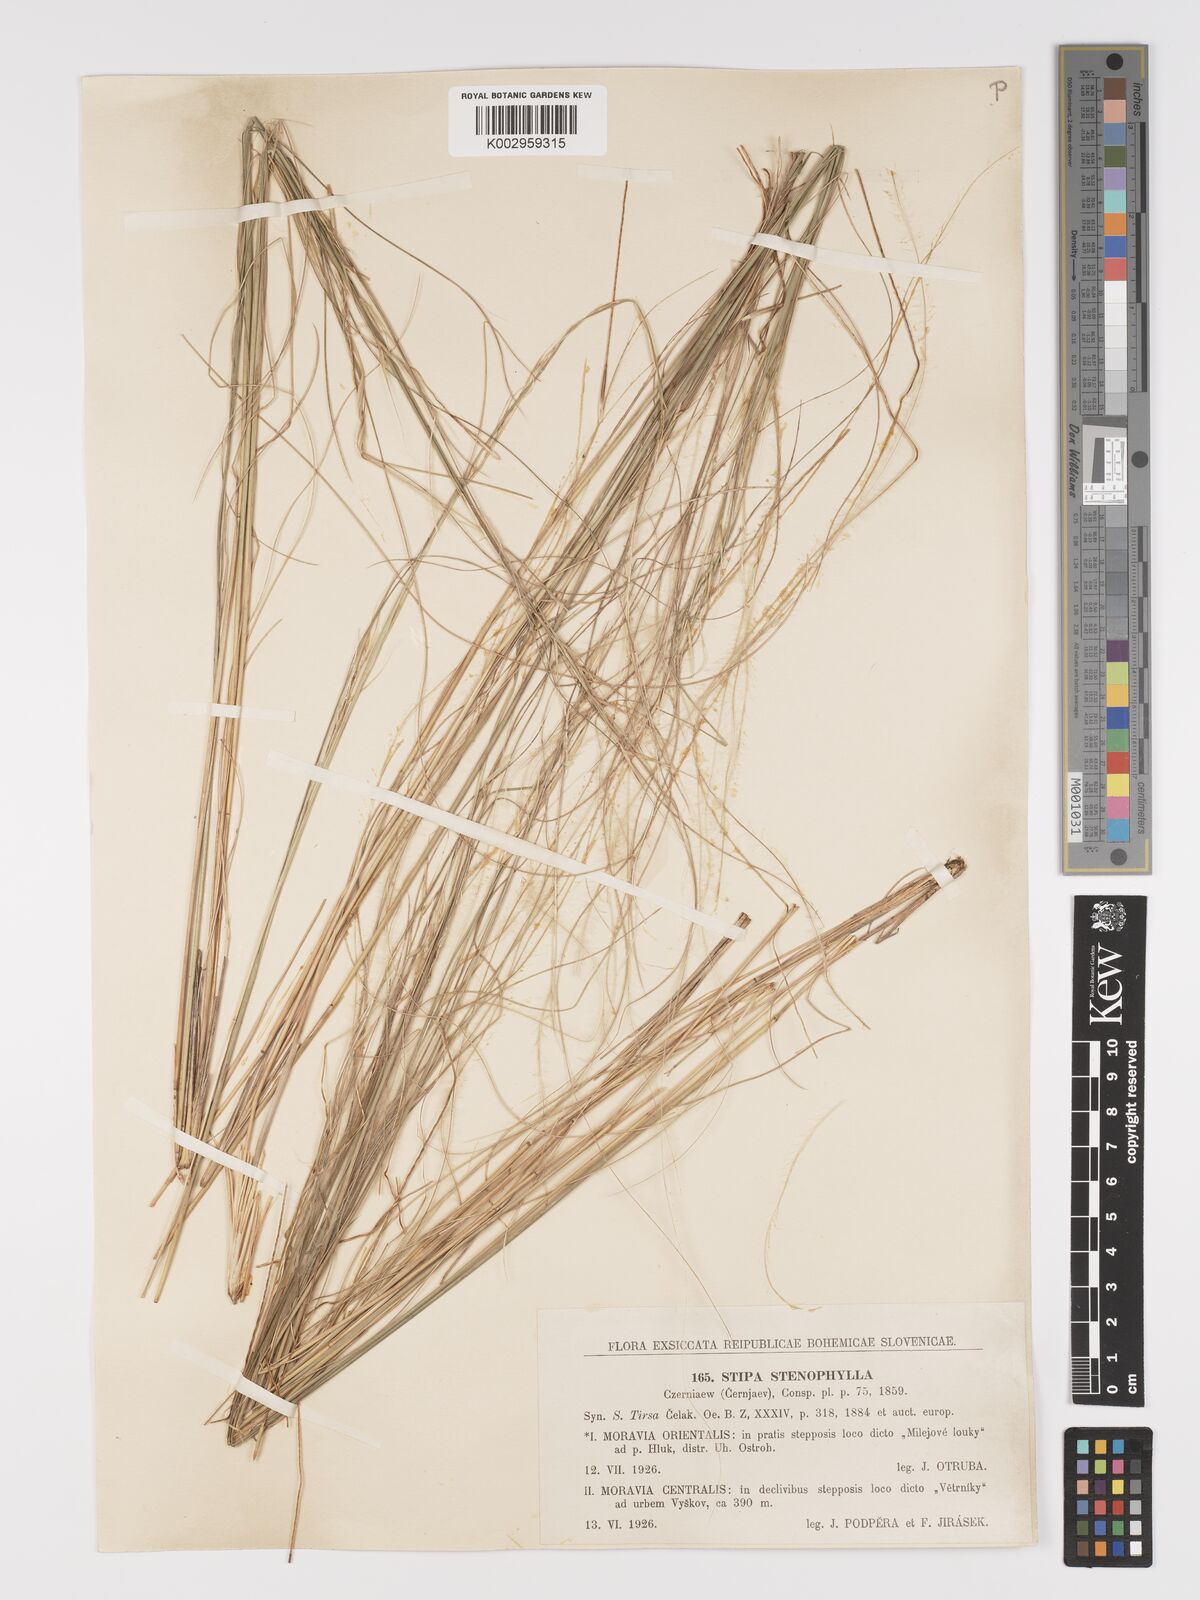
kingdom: Plantae
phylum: Tracheophyta
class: Liliopsida
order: Poales
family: Poaceae
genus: Stipa
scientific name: Stipa tirsa
